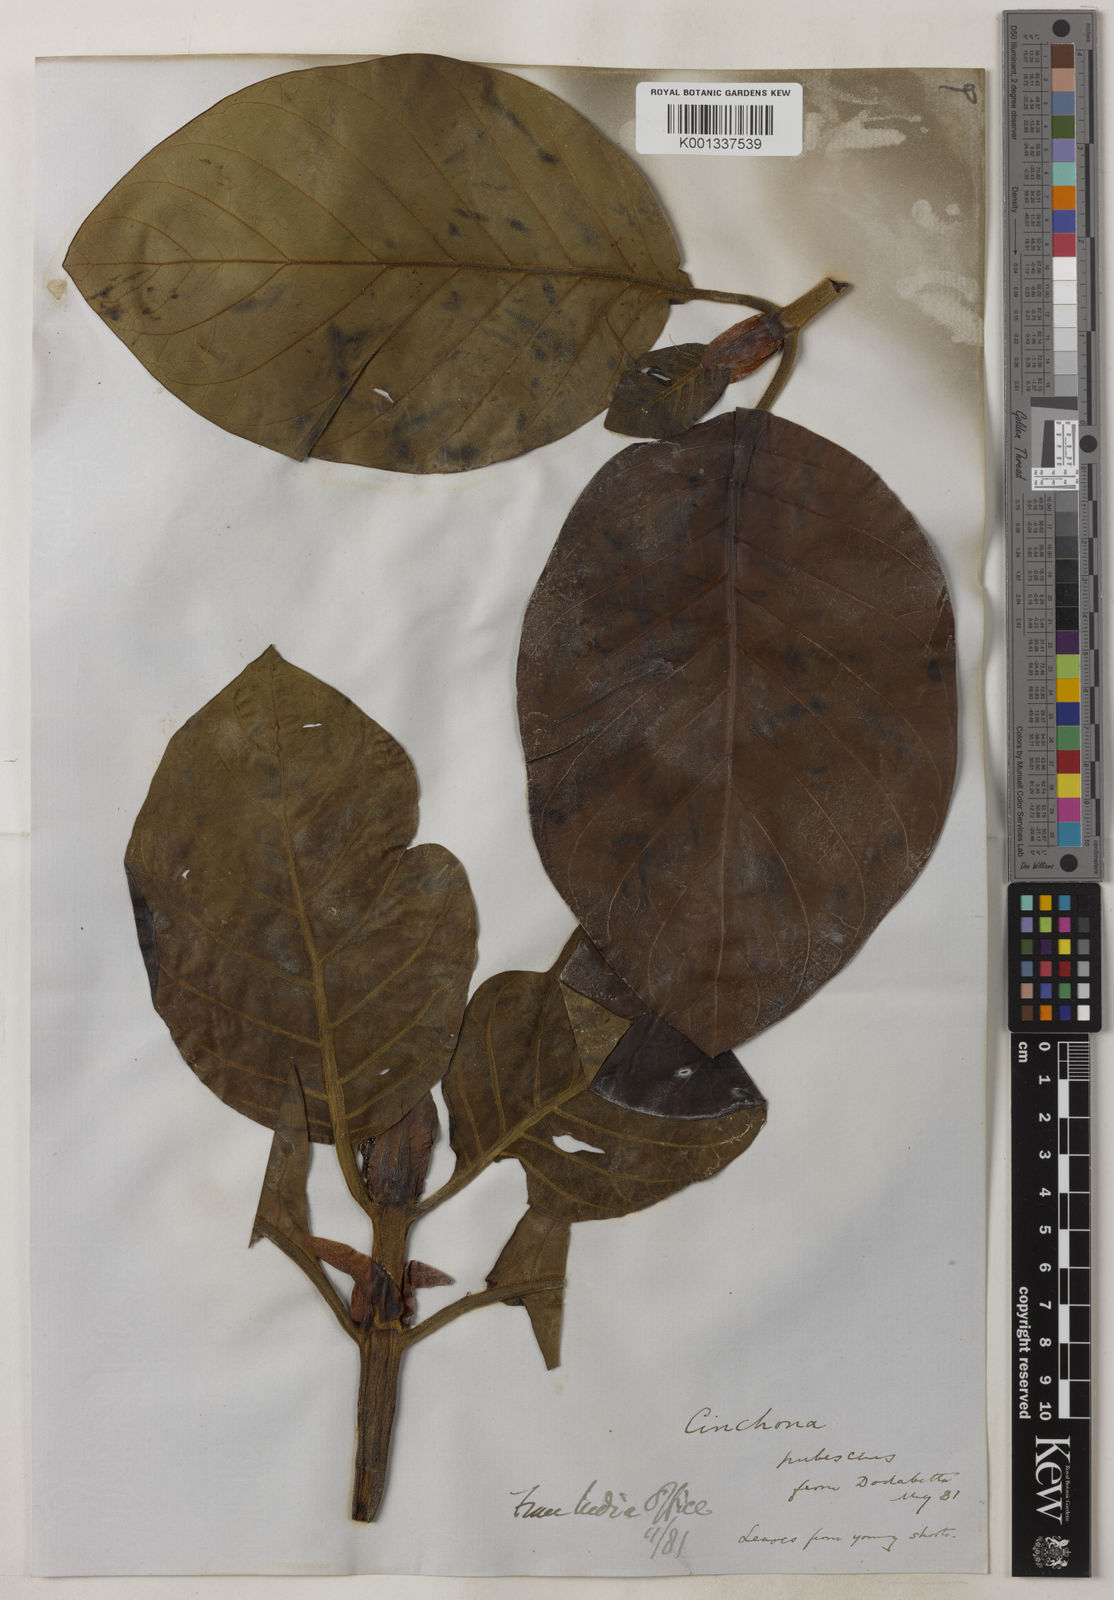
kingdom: Plantae
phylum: Tracheophyta
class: Magnoliopsida
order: Gentianales
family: Rubiaceae
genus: Cinchona
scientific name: Cinchona calisaya
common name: Ledgerbark
